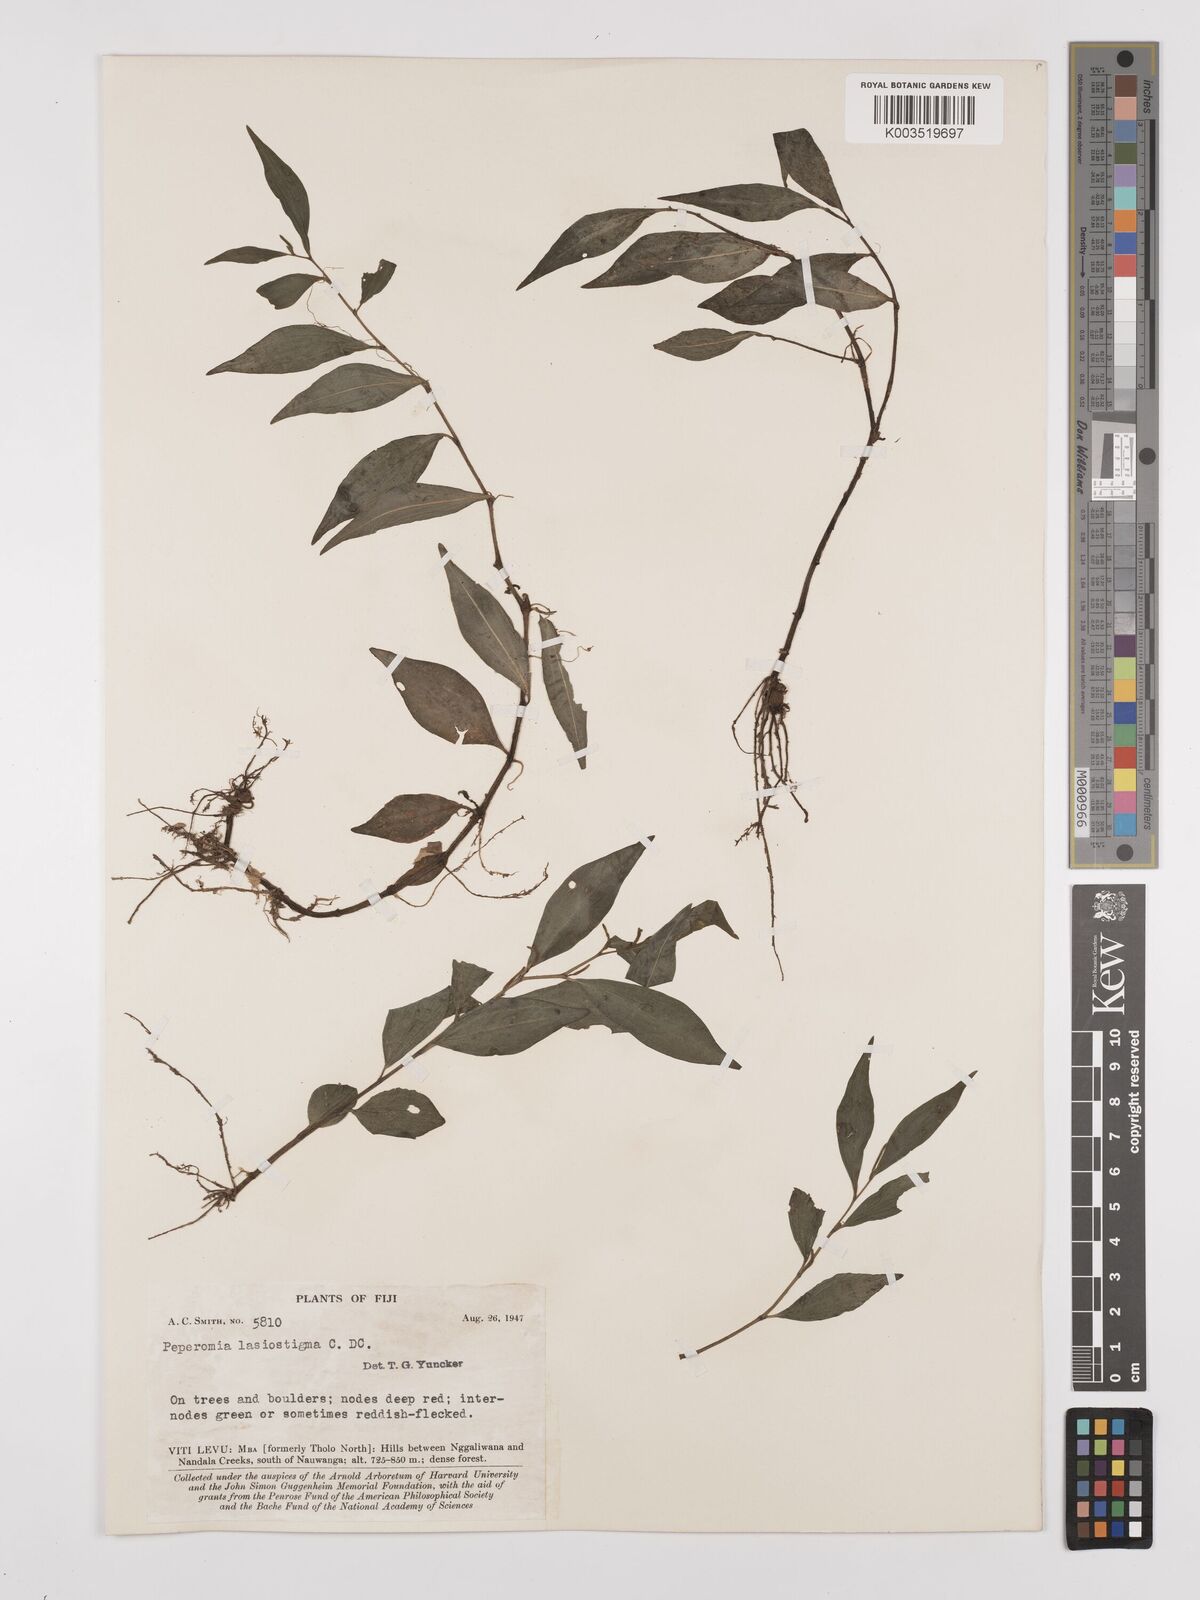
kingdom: Plantae
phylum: Tracheophyta
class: Magnoliopsida
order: Piperales
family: Piperaceae
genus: Peperomia
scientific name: Peperomia lasiostigma
